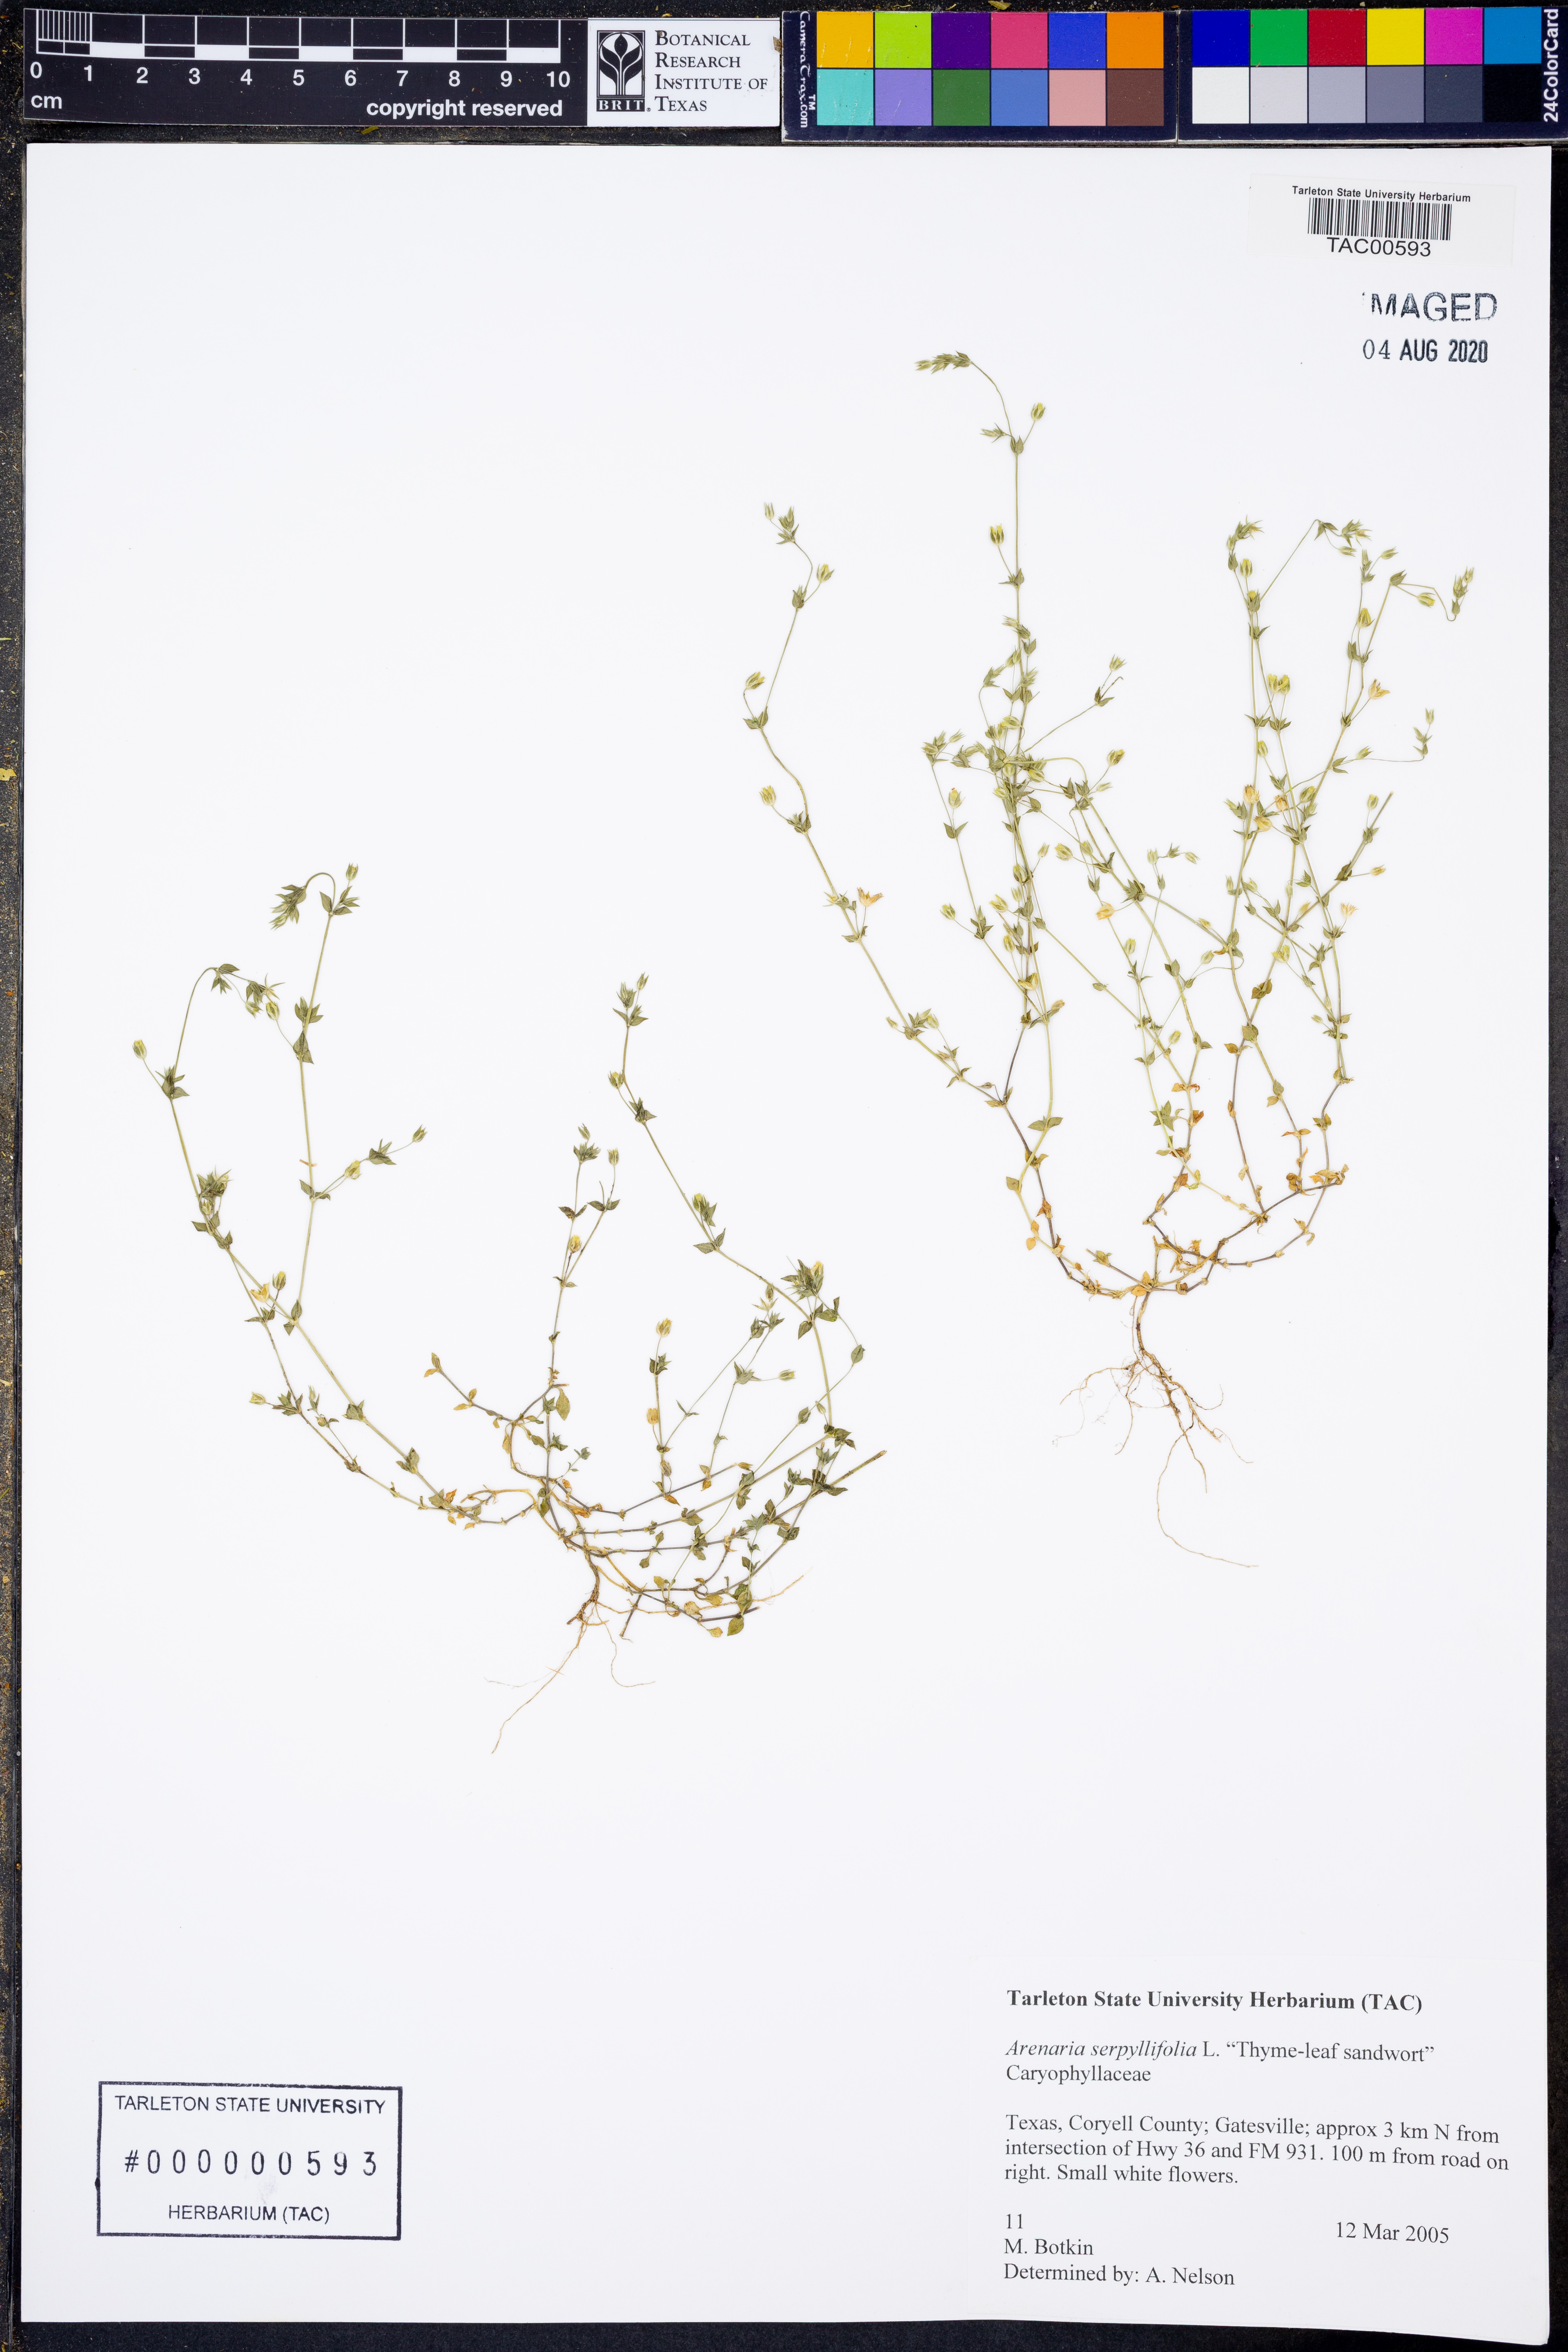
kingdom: Plantae
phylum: Tracheophyta
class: Magnoliopsida
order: Caryophyllales
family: Caryophyllaceae
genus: Arenaria
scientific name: Arenaria serpyllifolia
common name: Thyme-leaved sandwort
